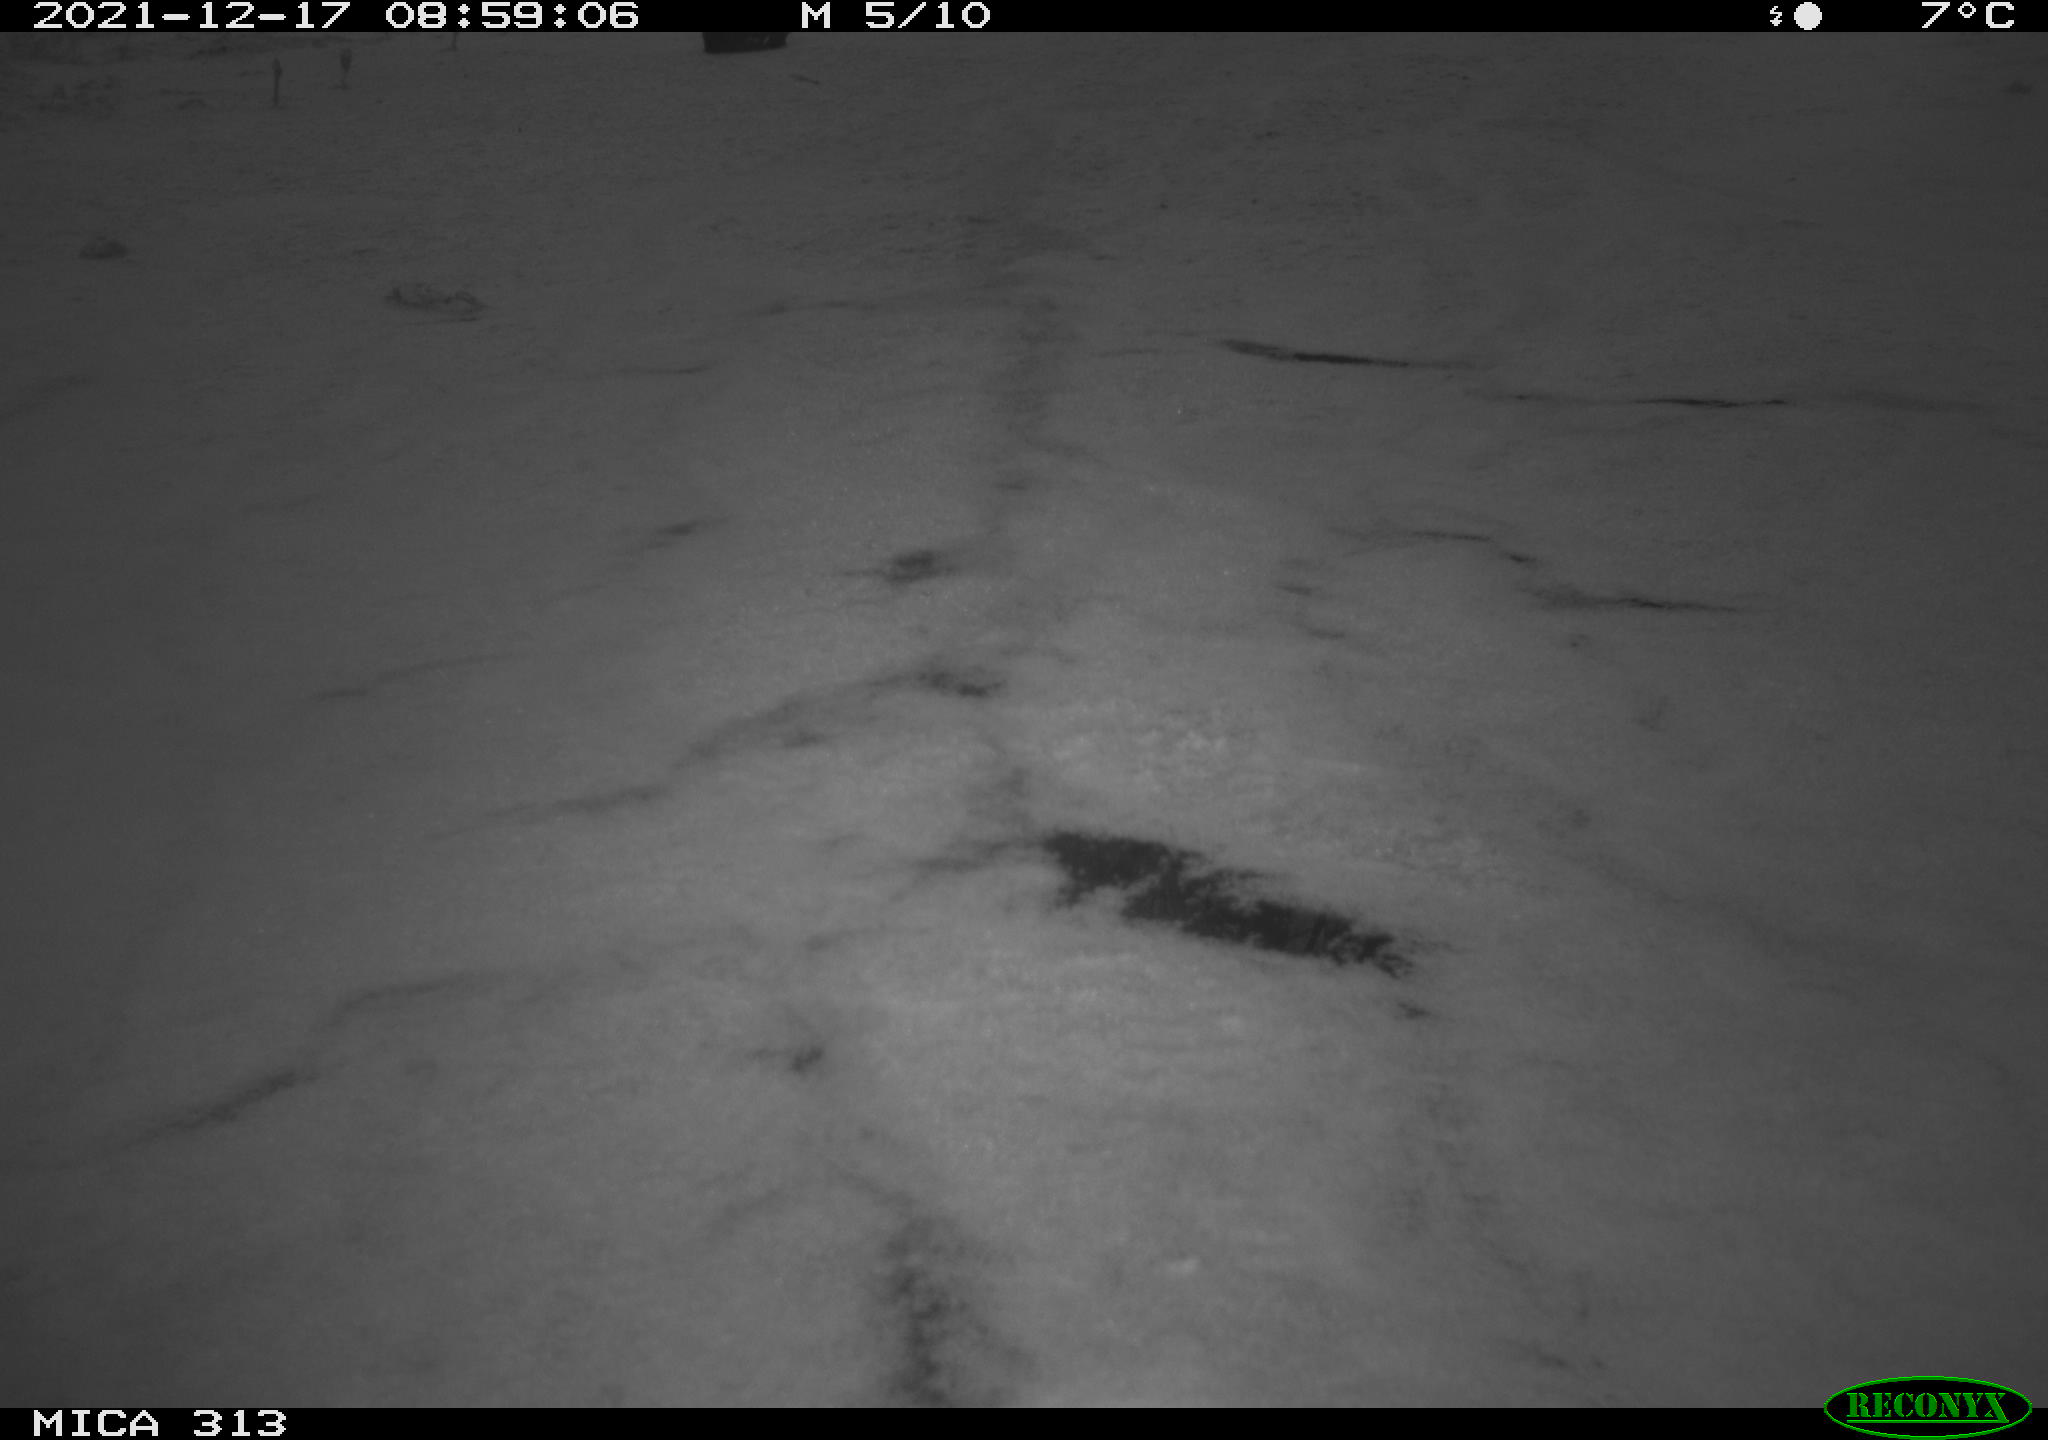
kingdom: Animalia
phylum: Chordata
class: Aves
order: Gruiformes
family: Rallidae
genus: Gallinula
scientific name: Gallinula chloropus
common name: Common moorhen
